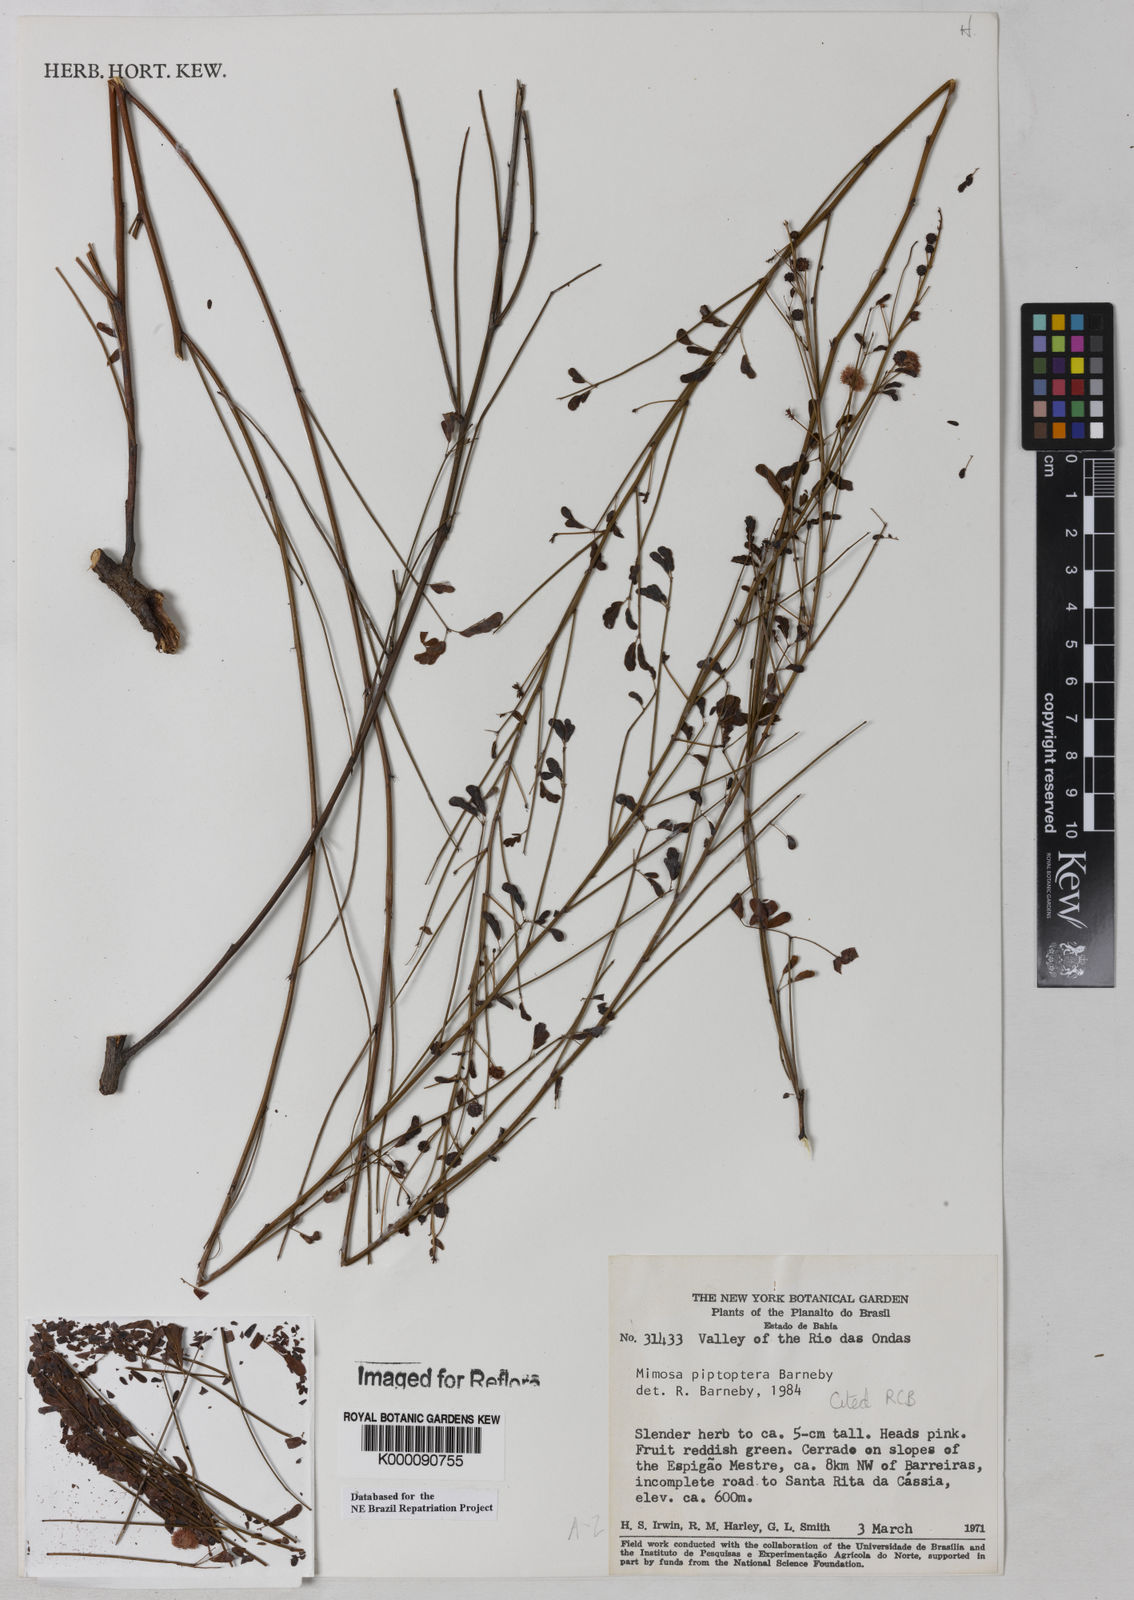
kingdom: Plantae
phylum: Tracheophyta
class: Magnoliopsida
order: Fabales
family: Fabaceae
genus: Mimosa
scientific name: Mimosa piptoptera
